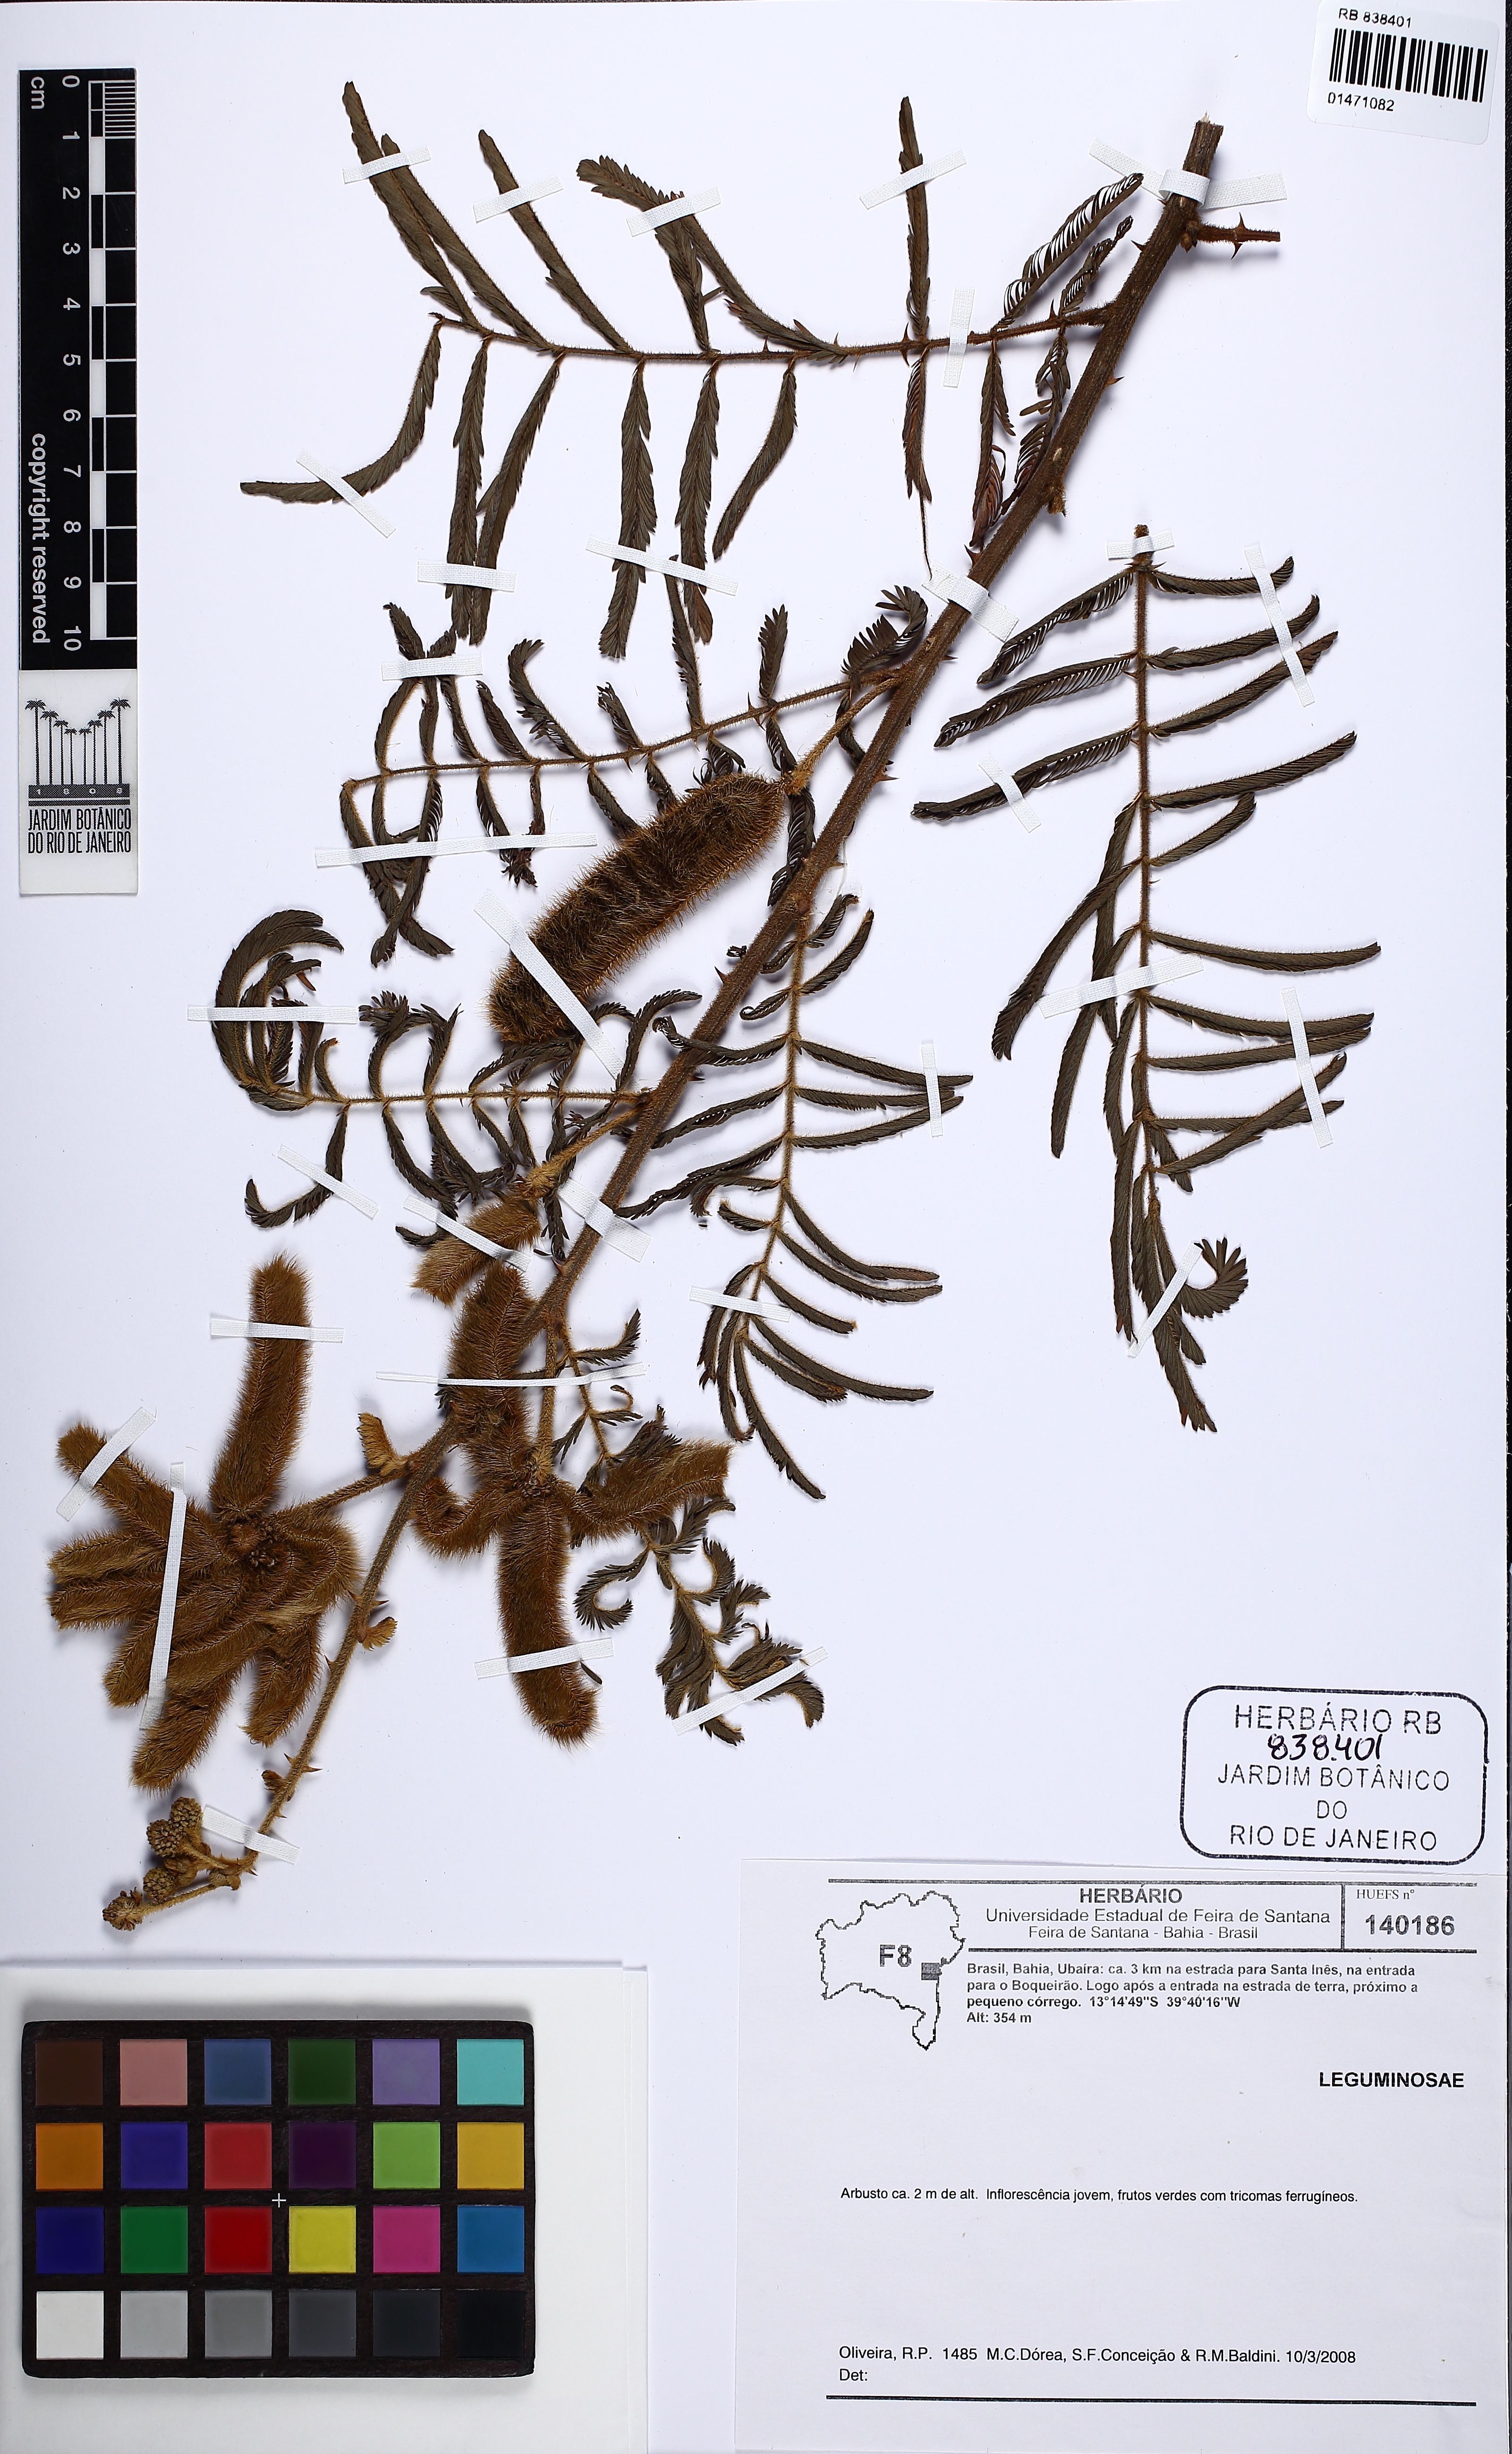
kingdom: Plantae
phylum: Tracheophyta
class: Magnoliopsida
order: Fabales
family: Fabaceae
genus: Mimosa
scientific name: Mimosa pigra
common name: Black mimosa
